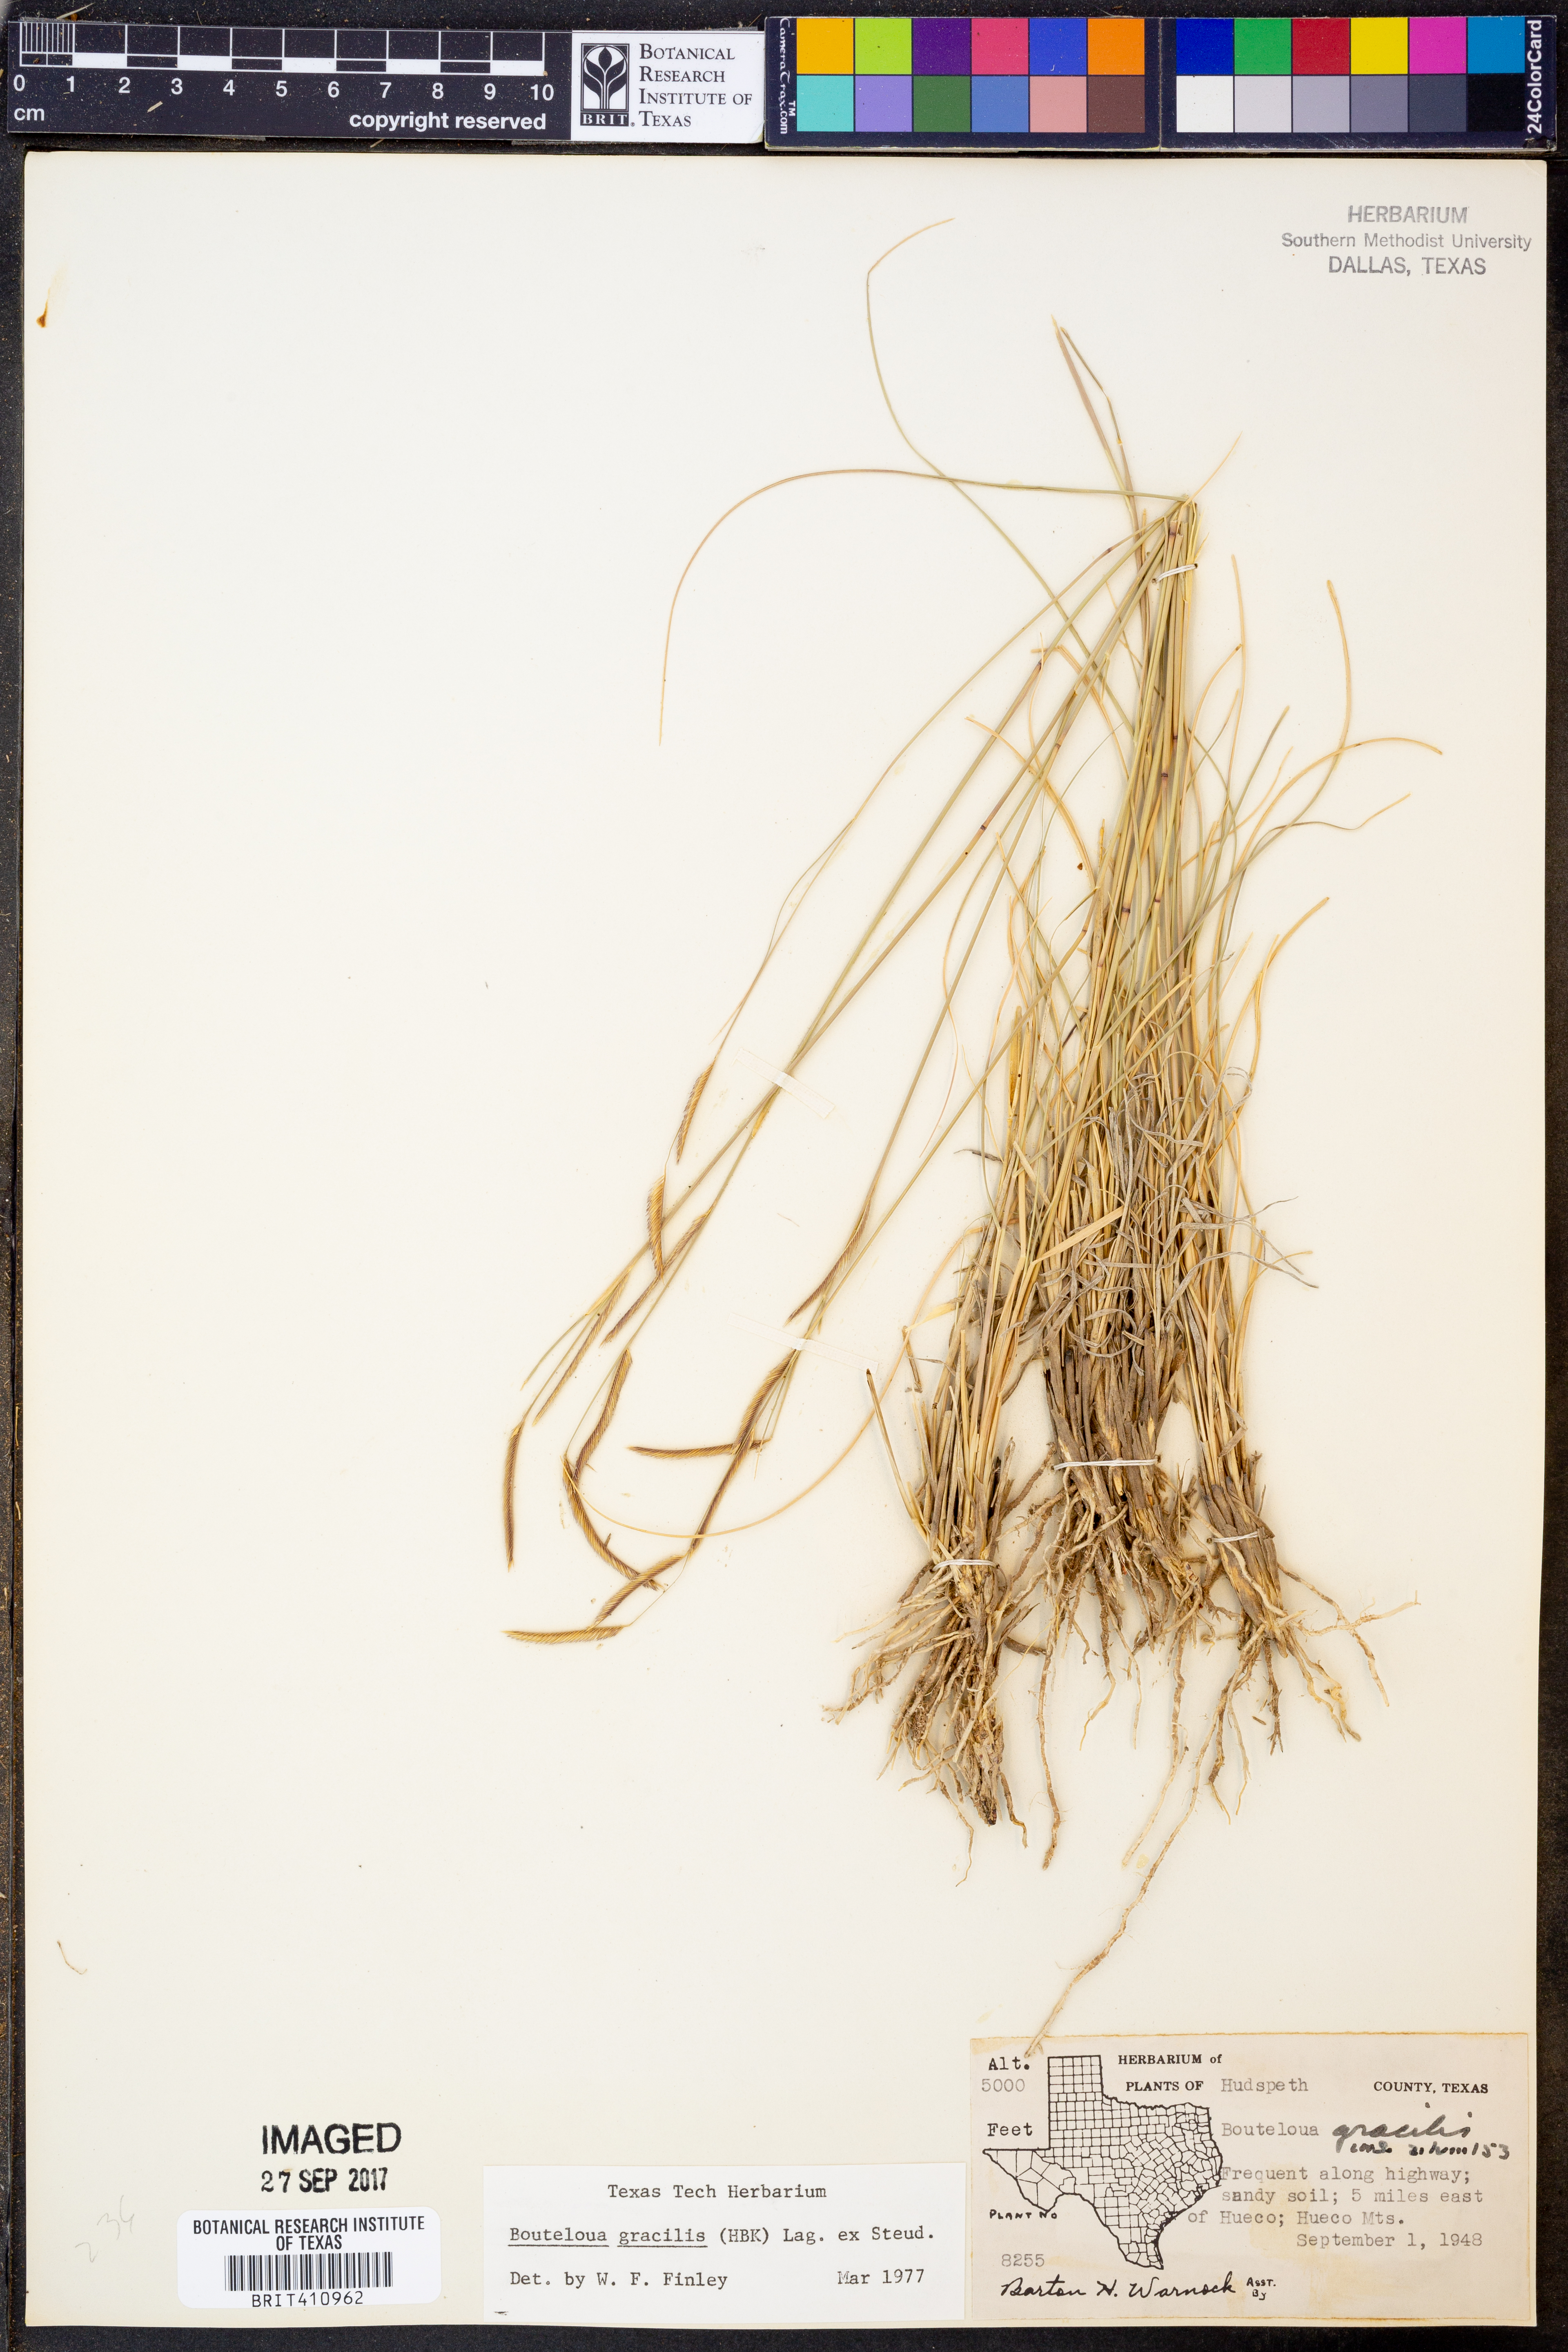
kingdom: Plantae
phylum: Tracheophyta
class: Liliopsida
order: Poales
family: Poaceae
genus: Bouteloua
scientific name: Bouteloua gracilis
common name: Blue grama
